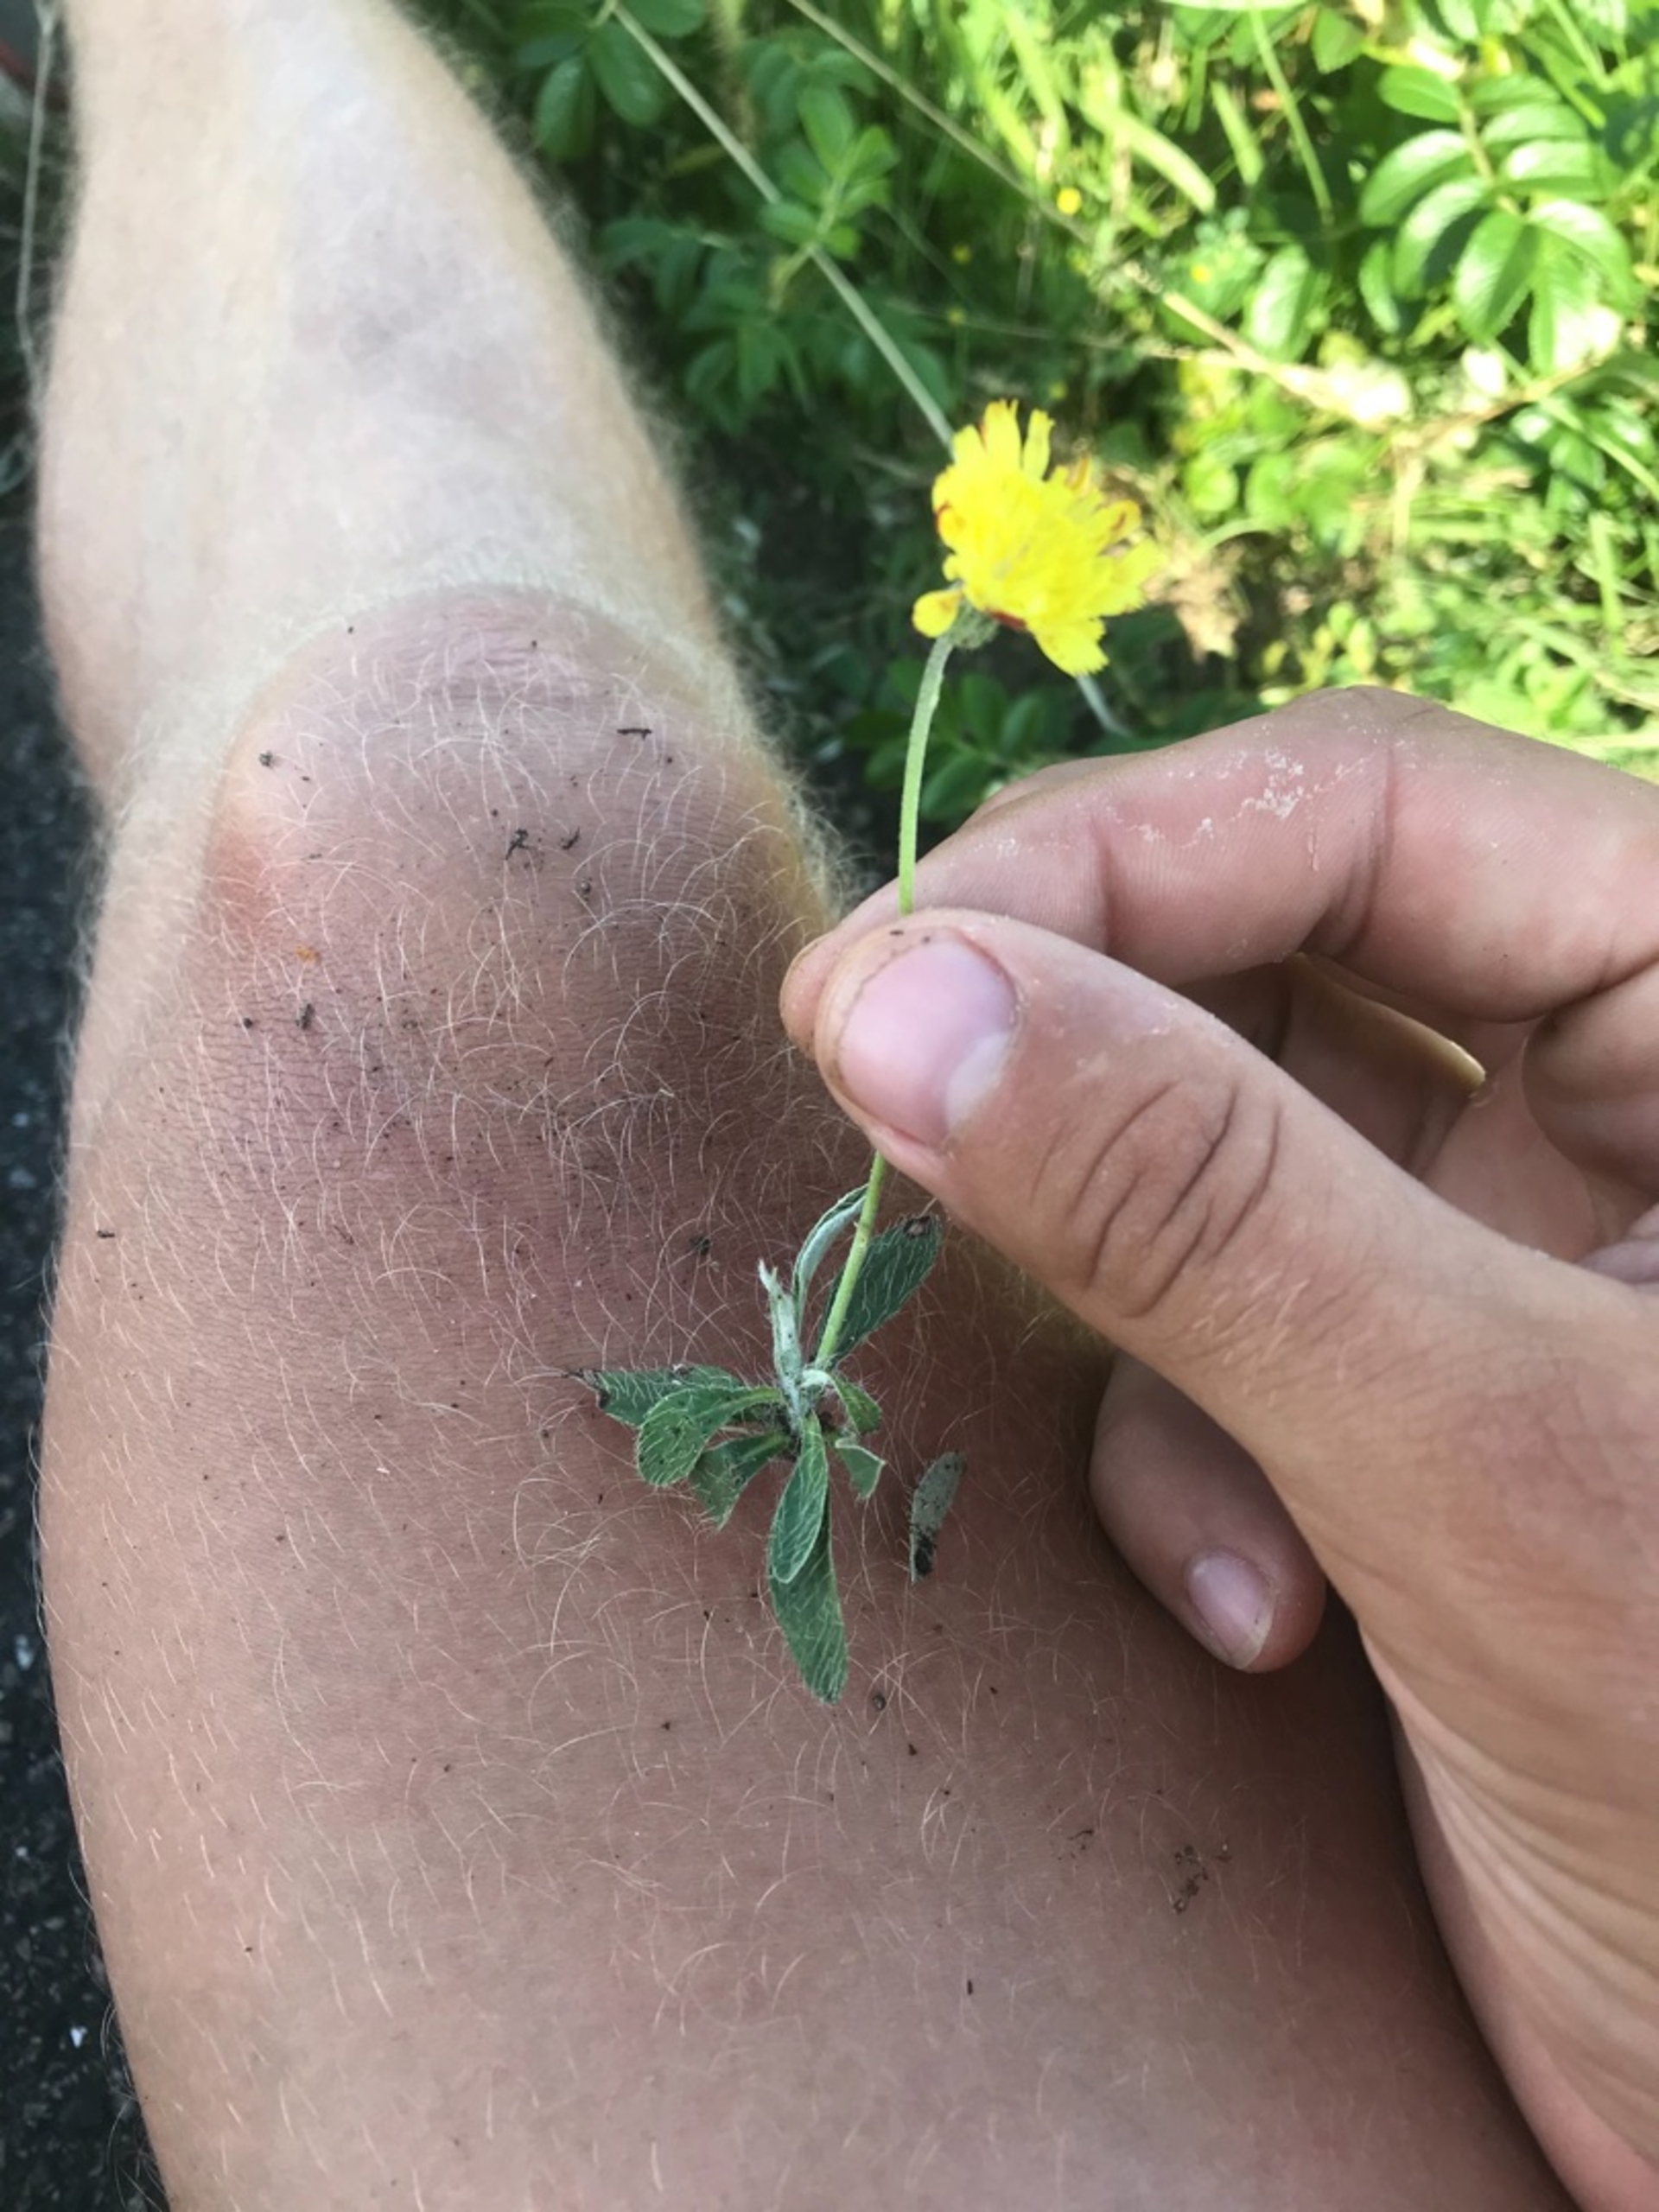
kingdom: Plantae
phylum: Tracheophyta
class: Magnoliopsida
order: Asterales
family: Asteraceae
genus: Pilosella
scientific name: Pilosella officinarum
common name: Håret høgeurt
